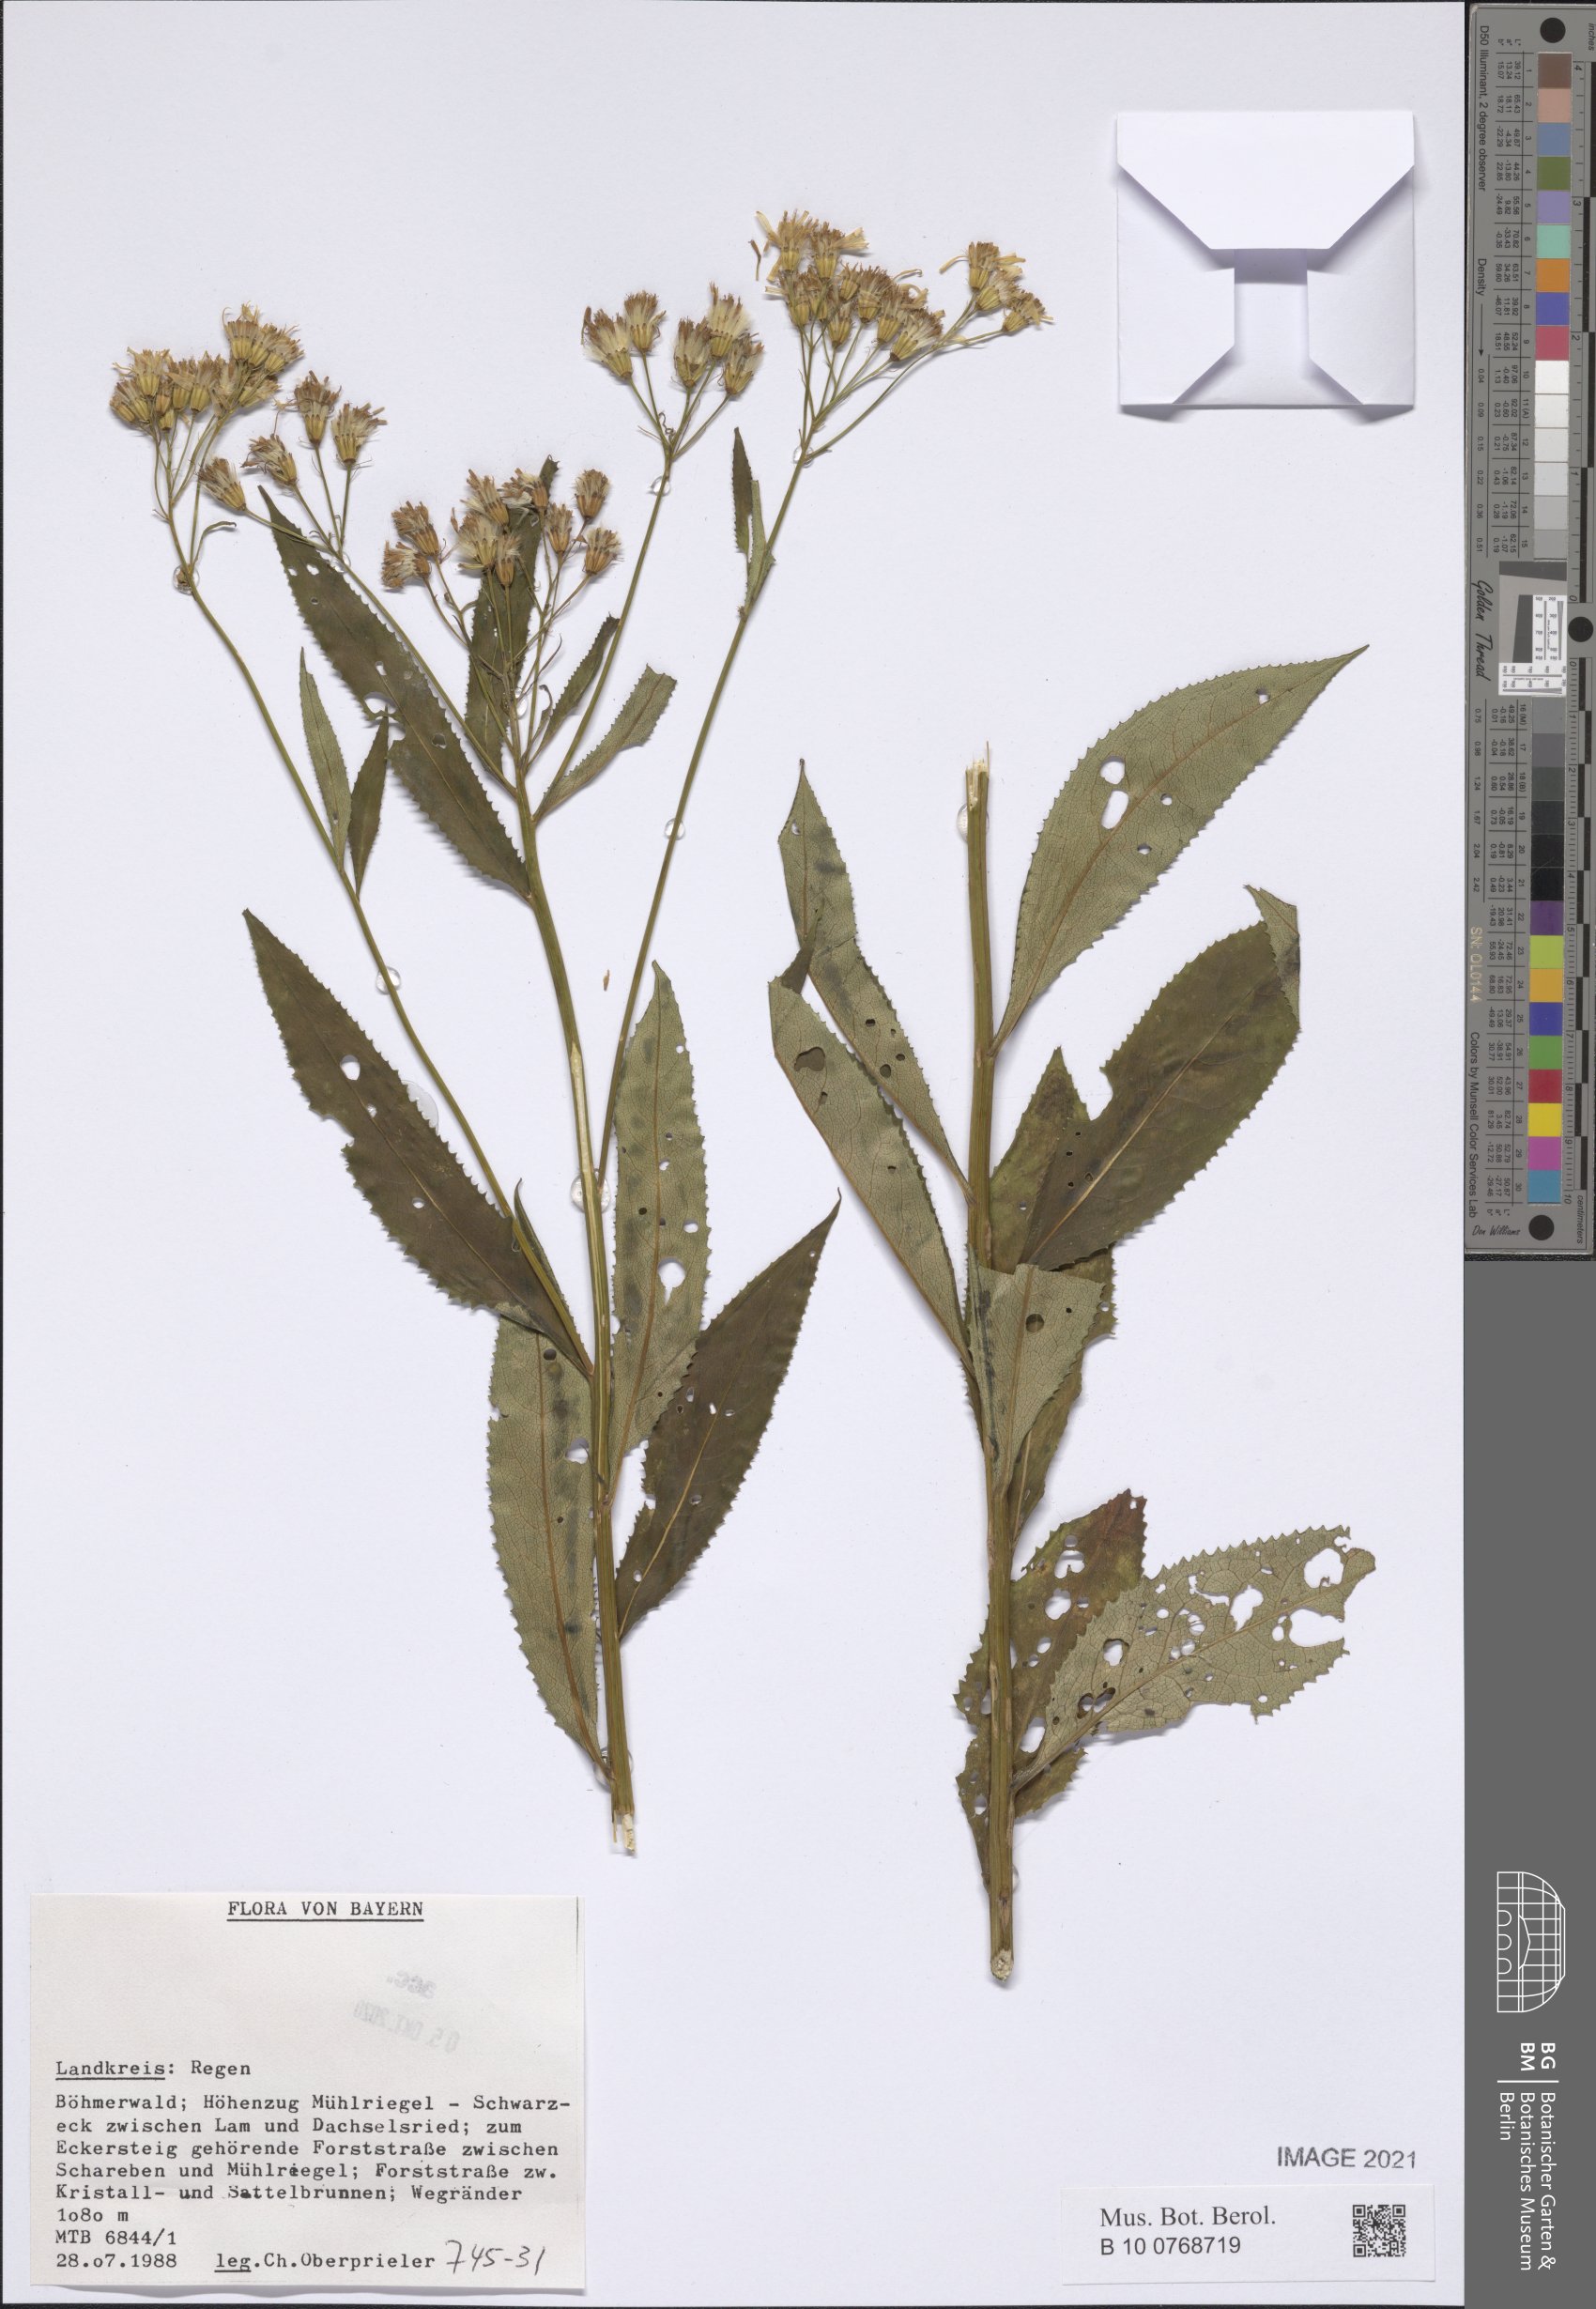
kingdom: Plantae
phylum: Tracheophyta
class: Magnoliopsida
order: Asterales
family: Asteraceae
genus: Senecio
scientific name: Senecio
